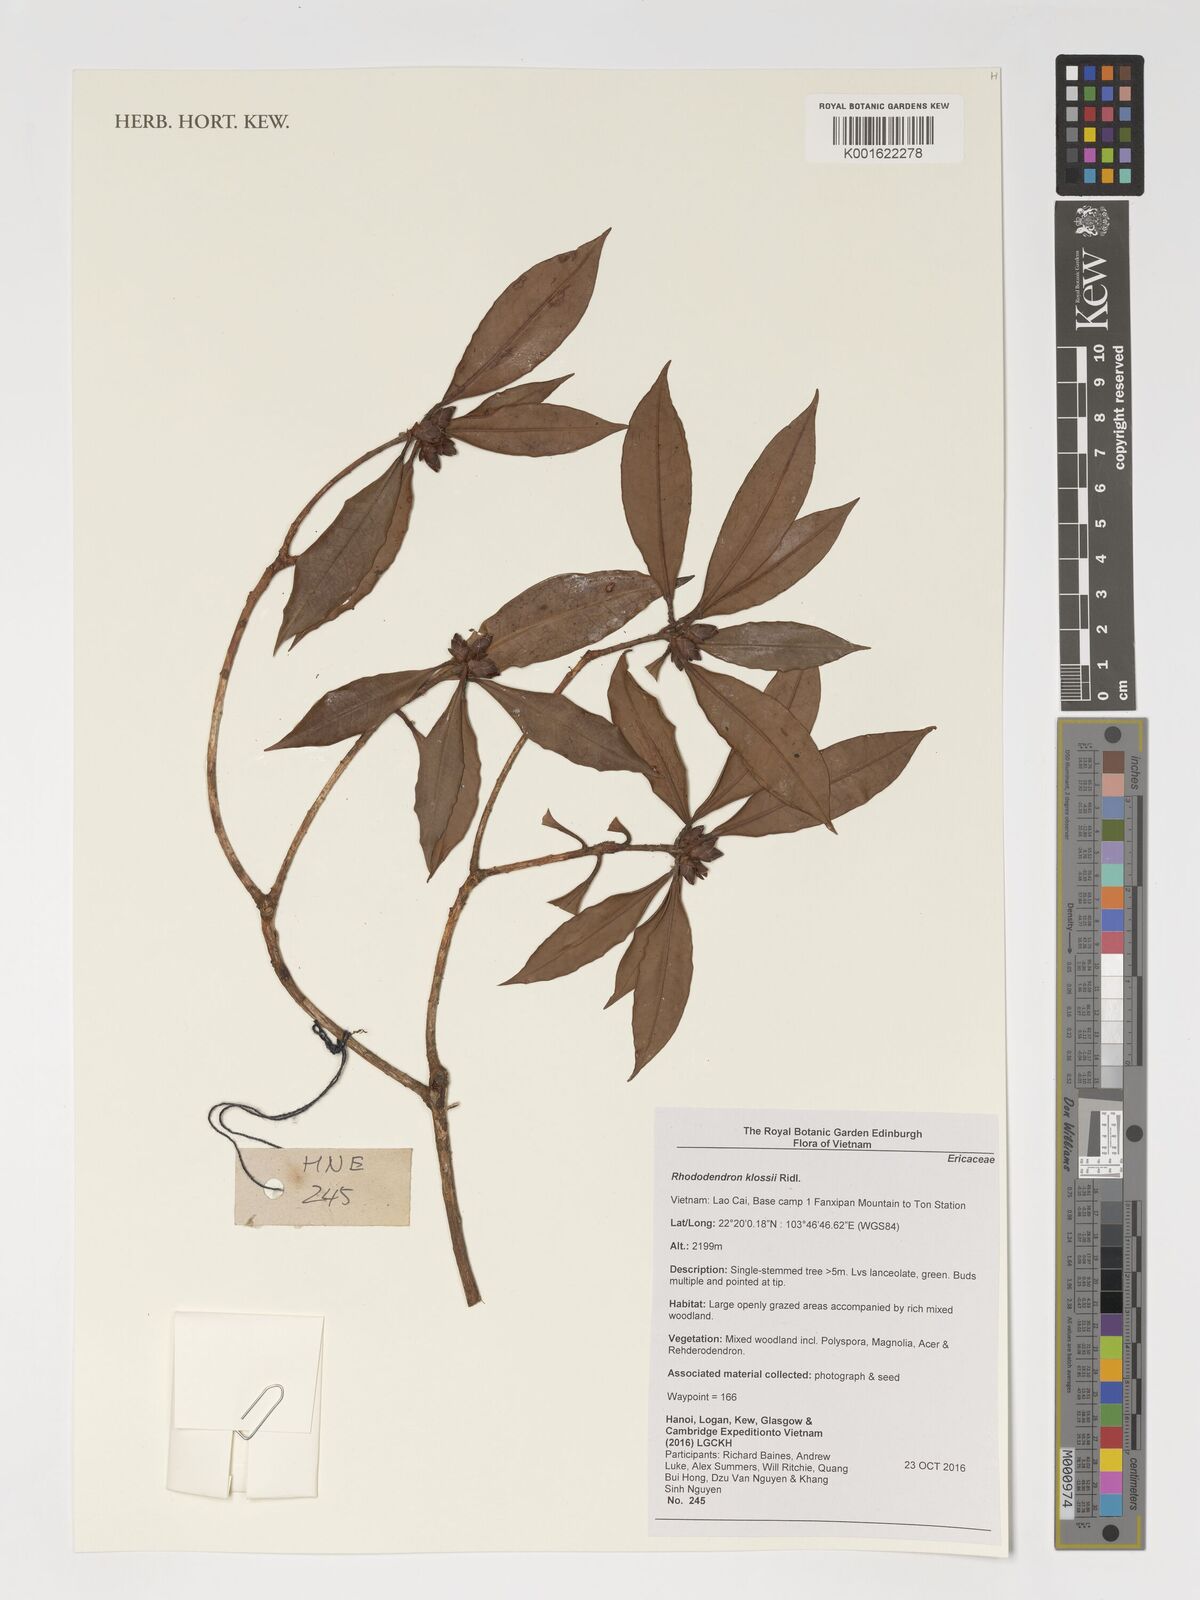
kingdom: Plantae
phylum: Tracheophyta
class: Magnoliopsida
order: Ericales
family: Ericaceae
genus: Rhododendron
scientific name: Rhododendron moulmainense
